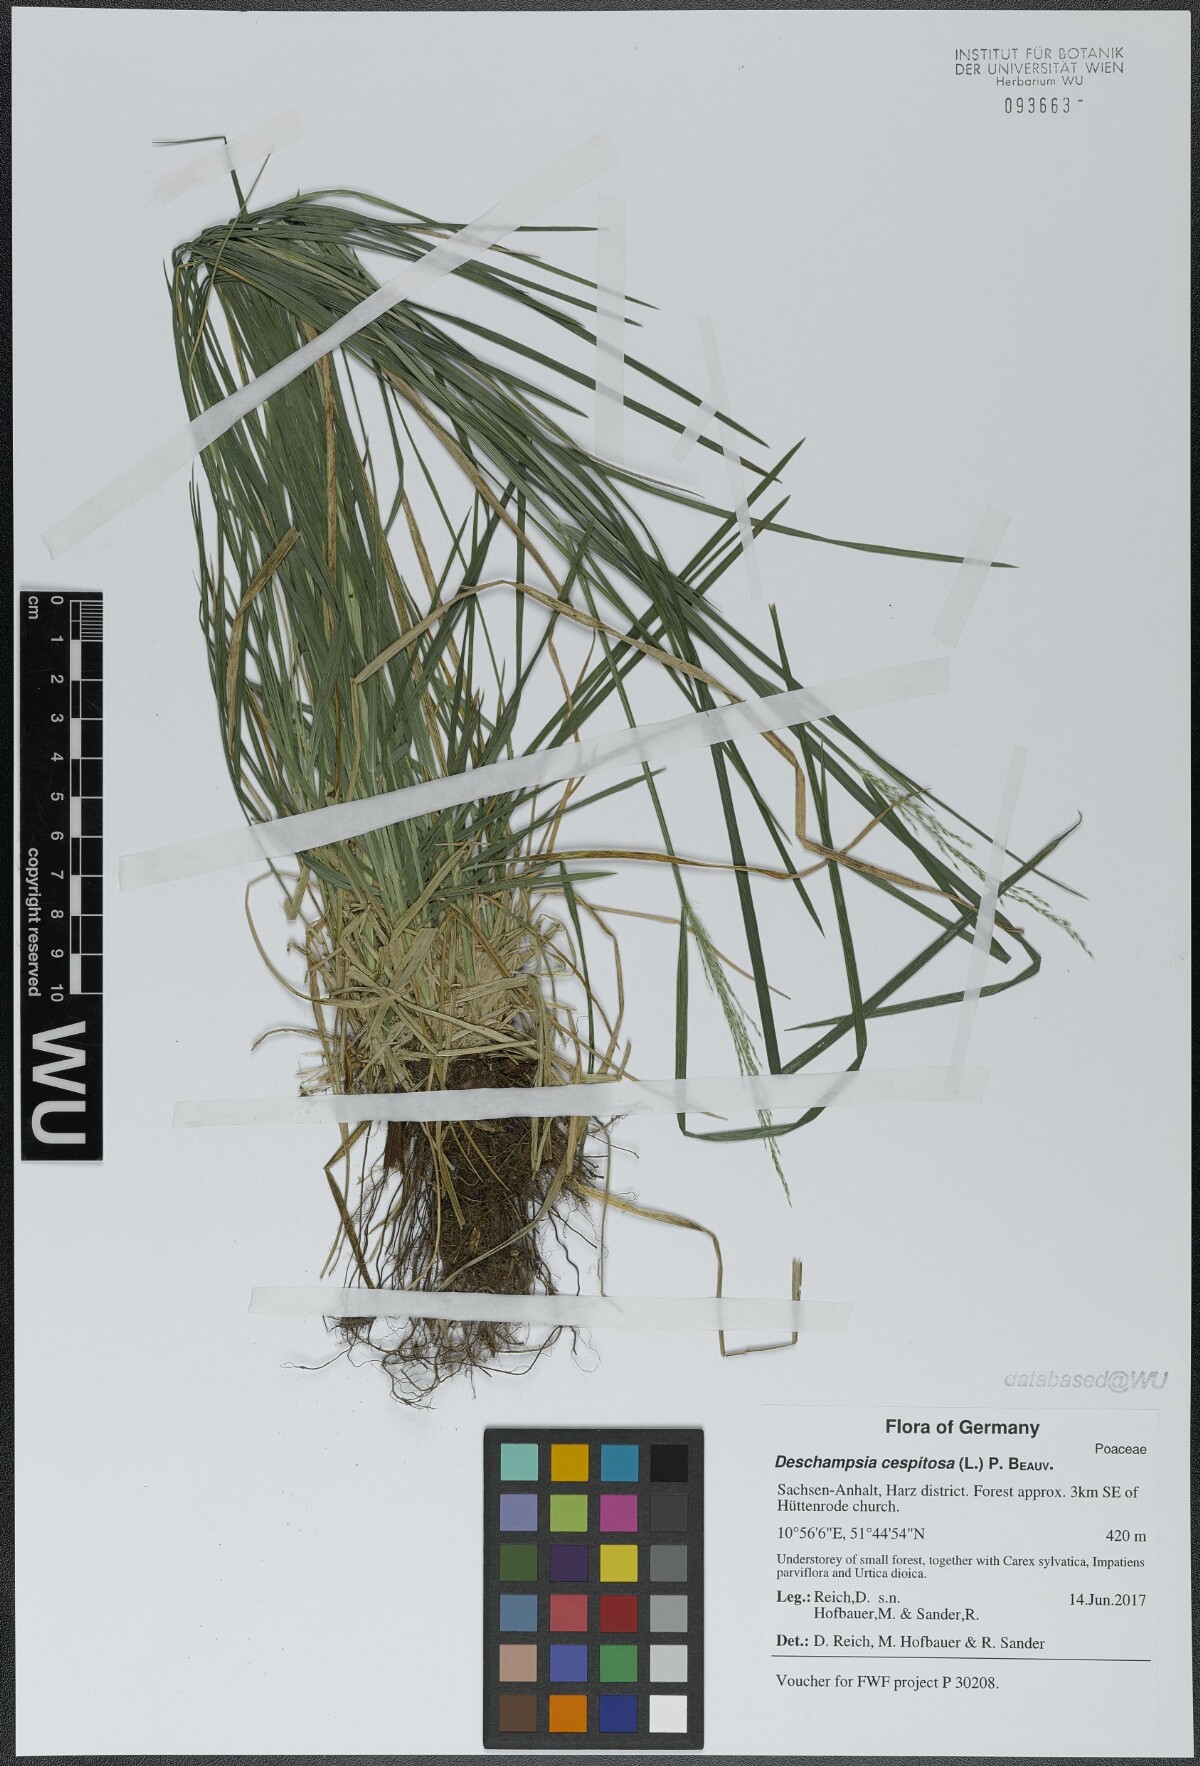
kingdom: Plantae
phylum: Tracheophyta
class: Liliopsida
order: Poales
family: Poaceae
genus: Deschampsia
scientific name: Deschampsia cespitosa
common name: Tufted hair-grass
